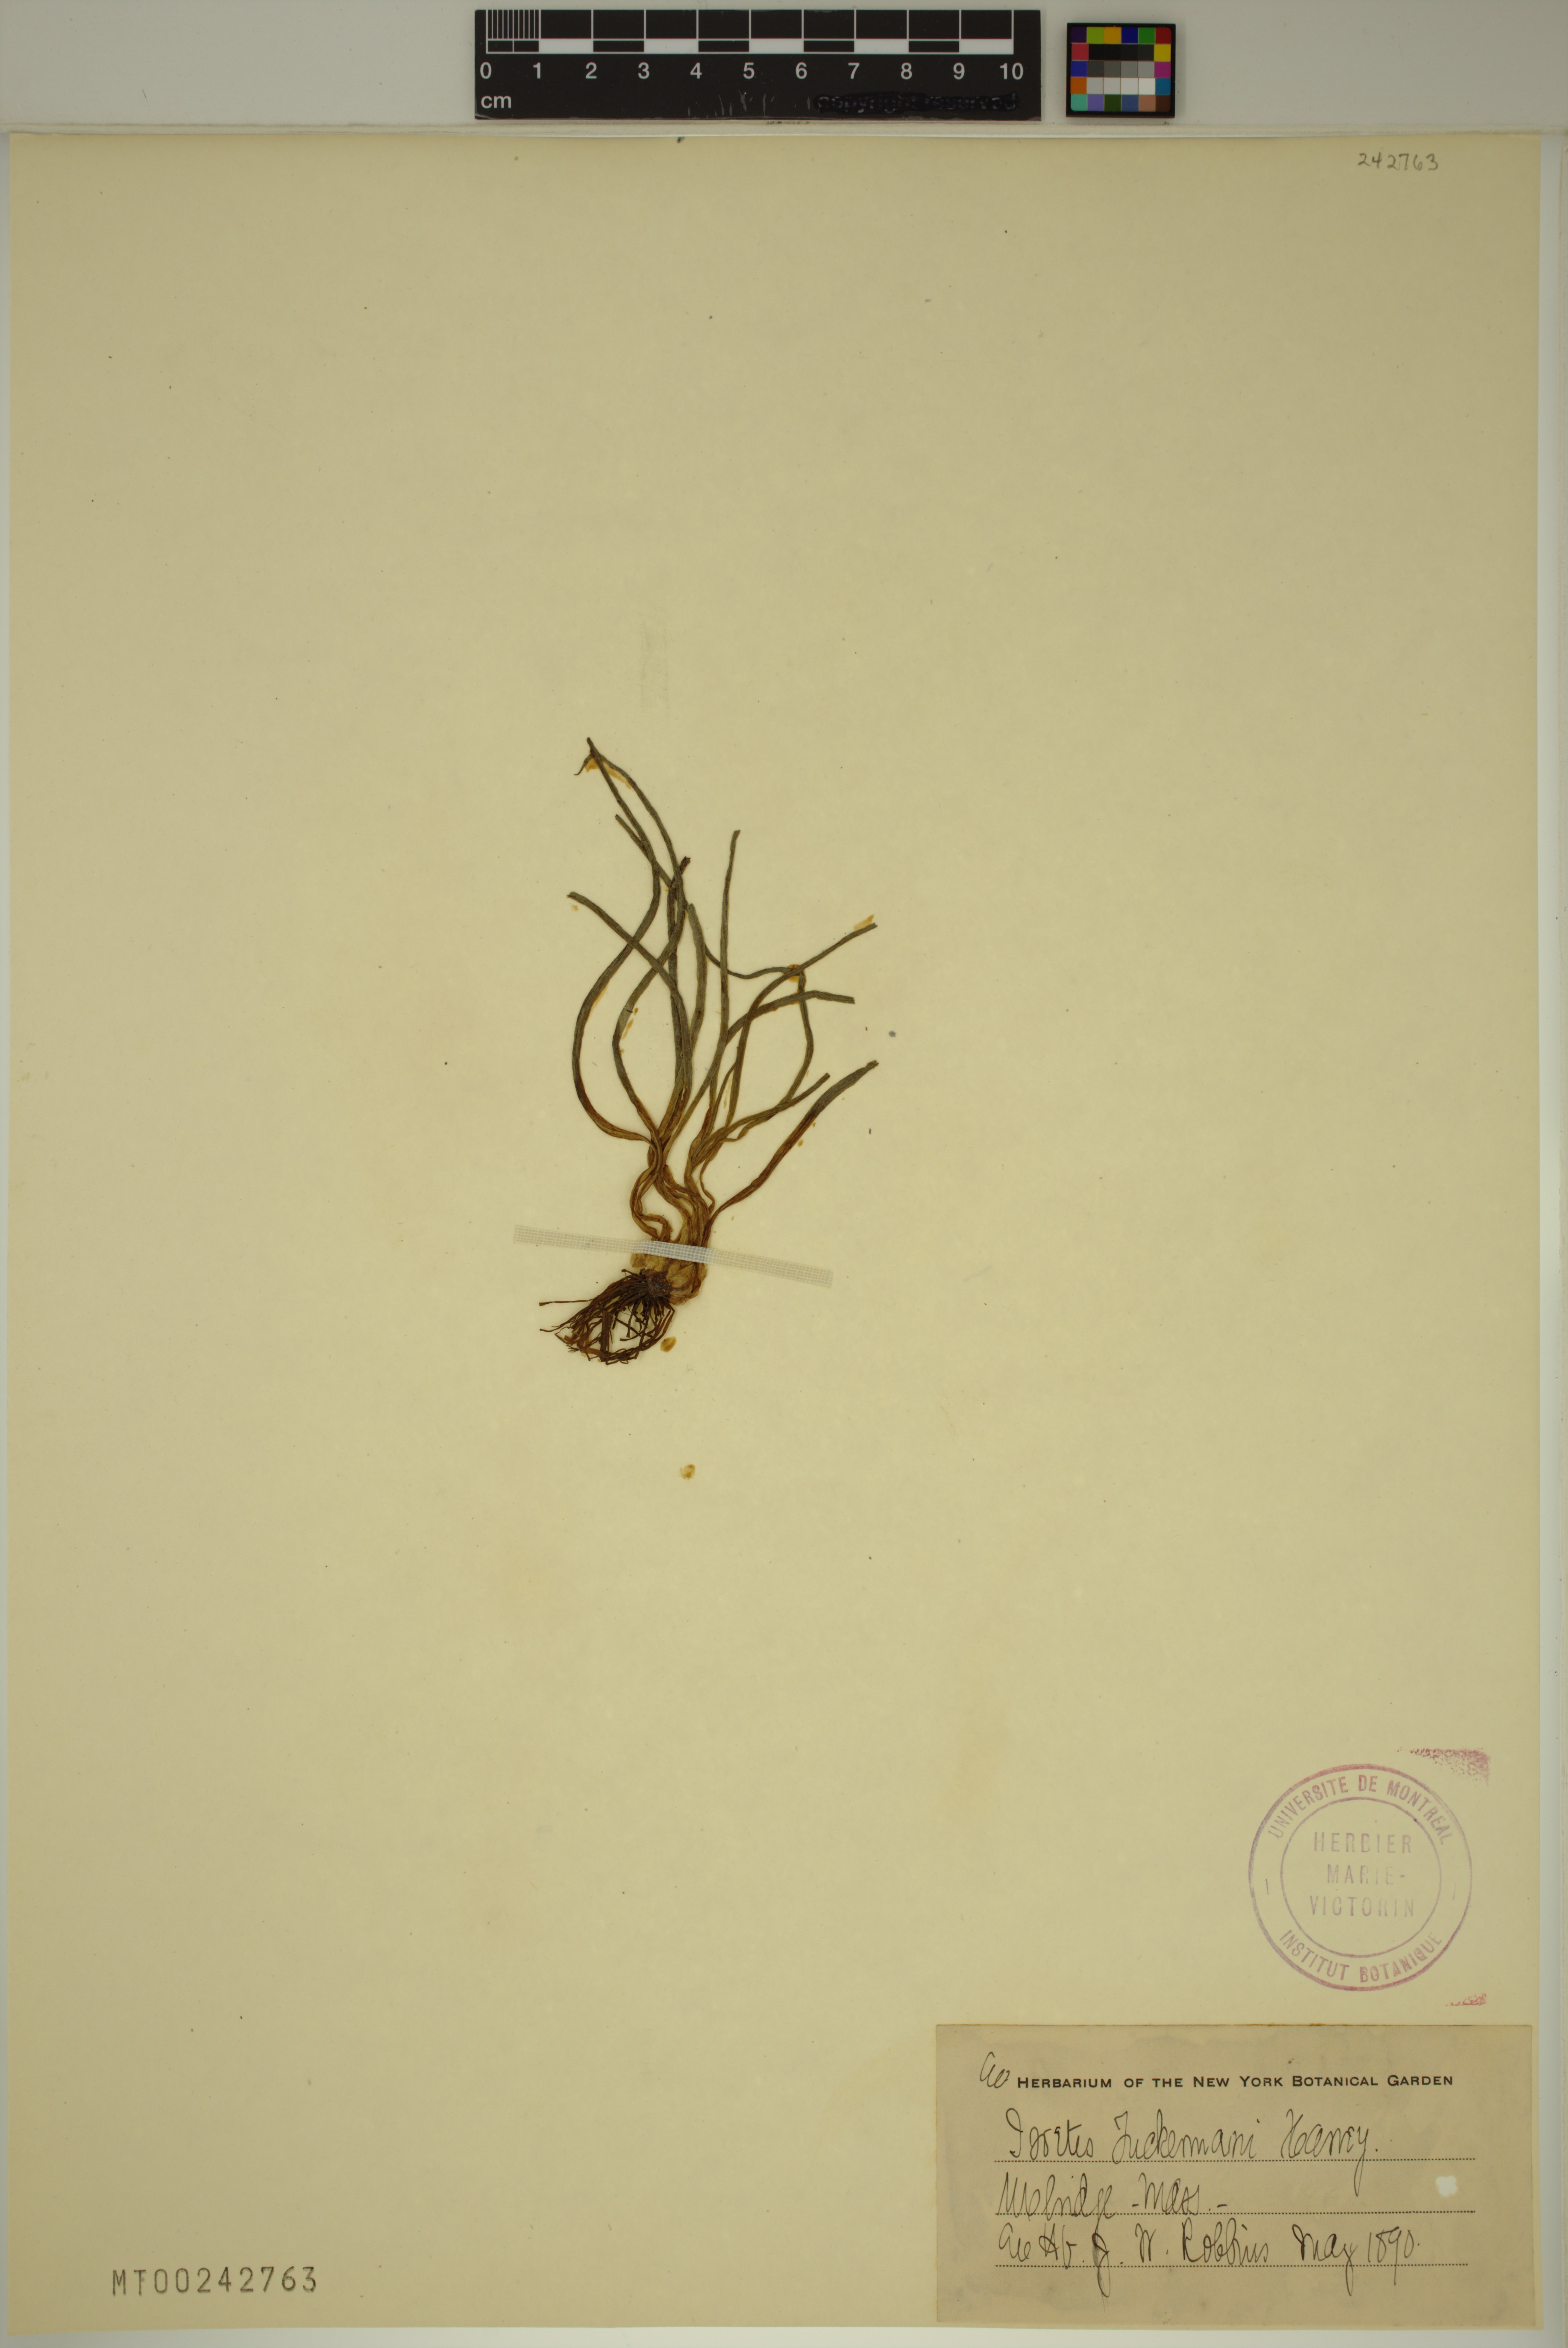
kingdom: Plantae
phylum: Tracheophyta
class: Lycopodiopsida
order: Isoetales
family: Isoetaceae
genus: Isoetes
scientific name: Isoetes tuckermanii
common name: Tuckerman's quillwort
